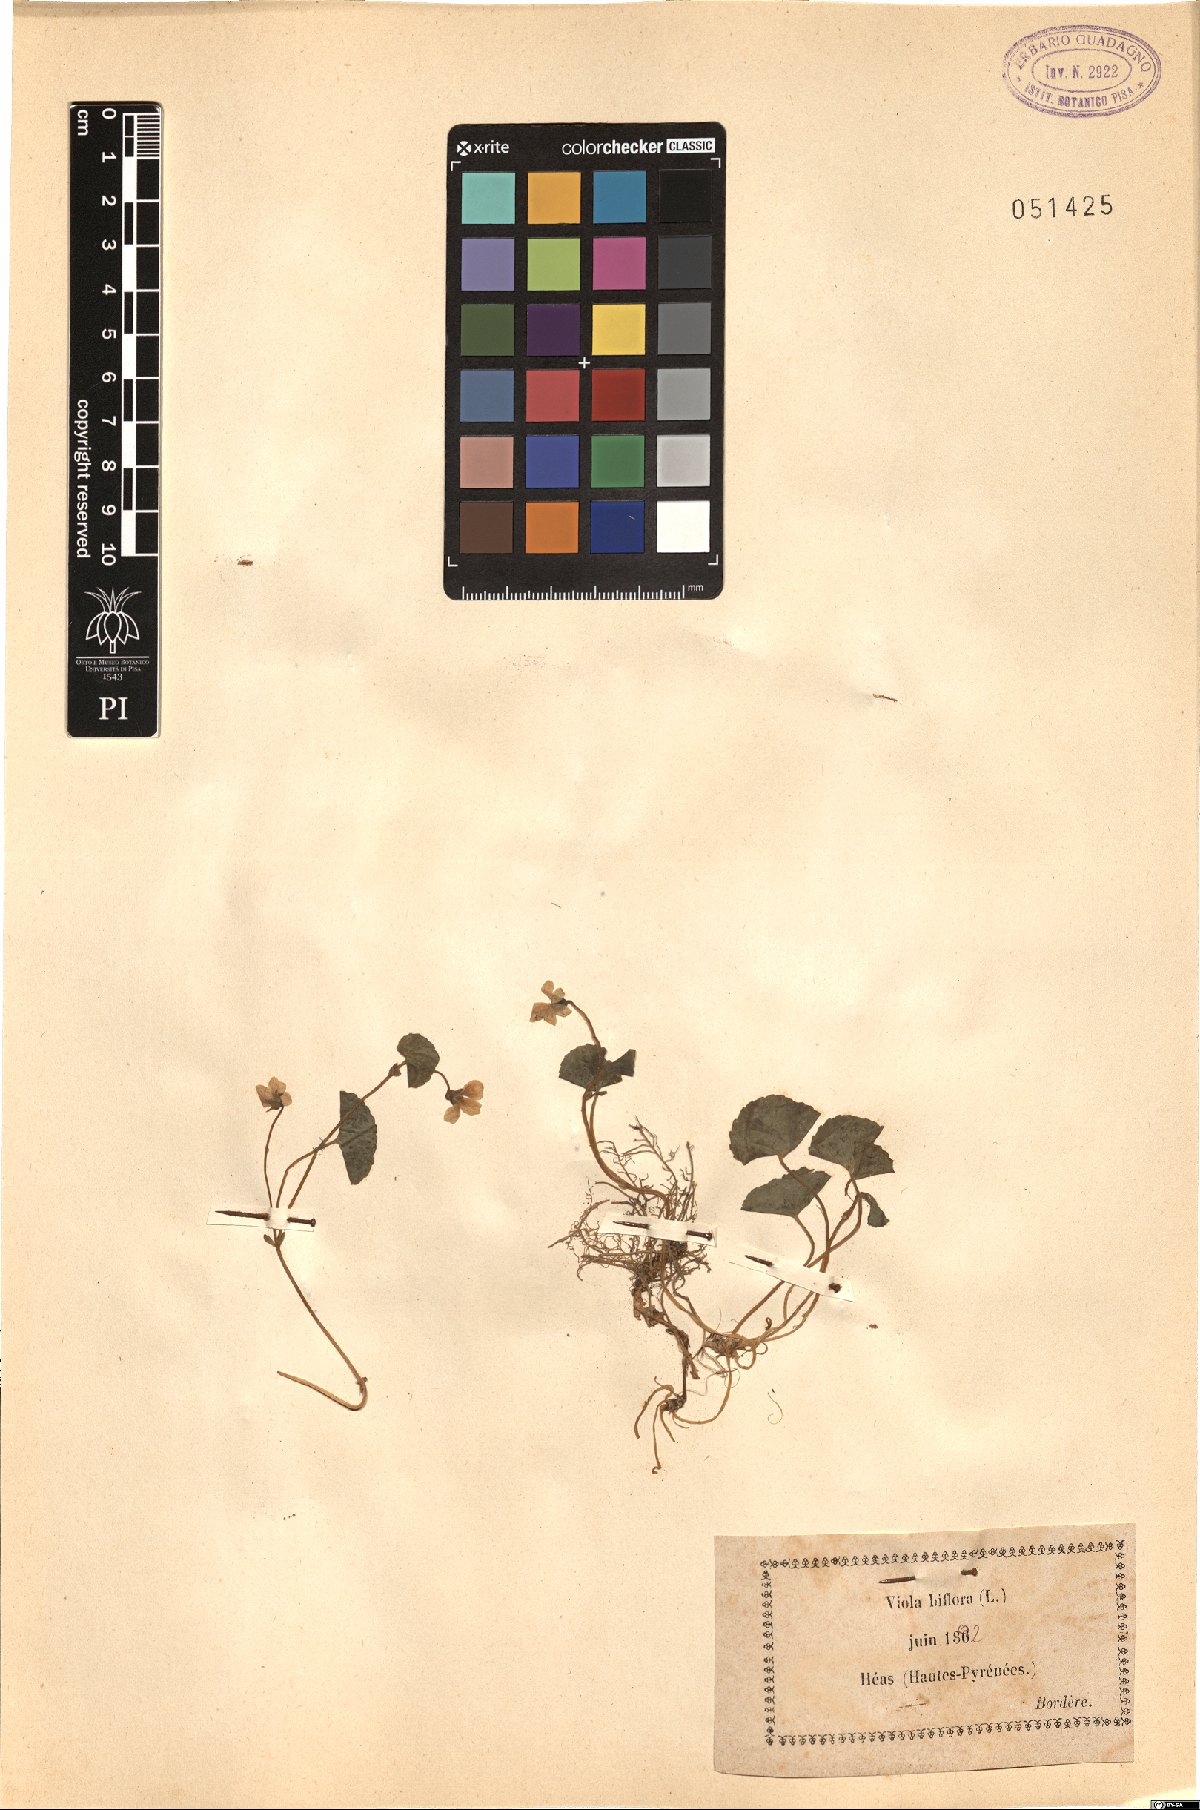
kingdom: Plantae
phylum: Tracheophyta
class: Magnoliopsida
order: Malpighiales
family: Violaceae
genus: Viola
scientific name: Viola biflora
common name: Alpine yellow violet
